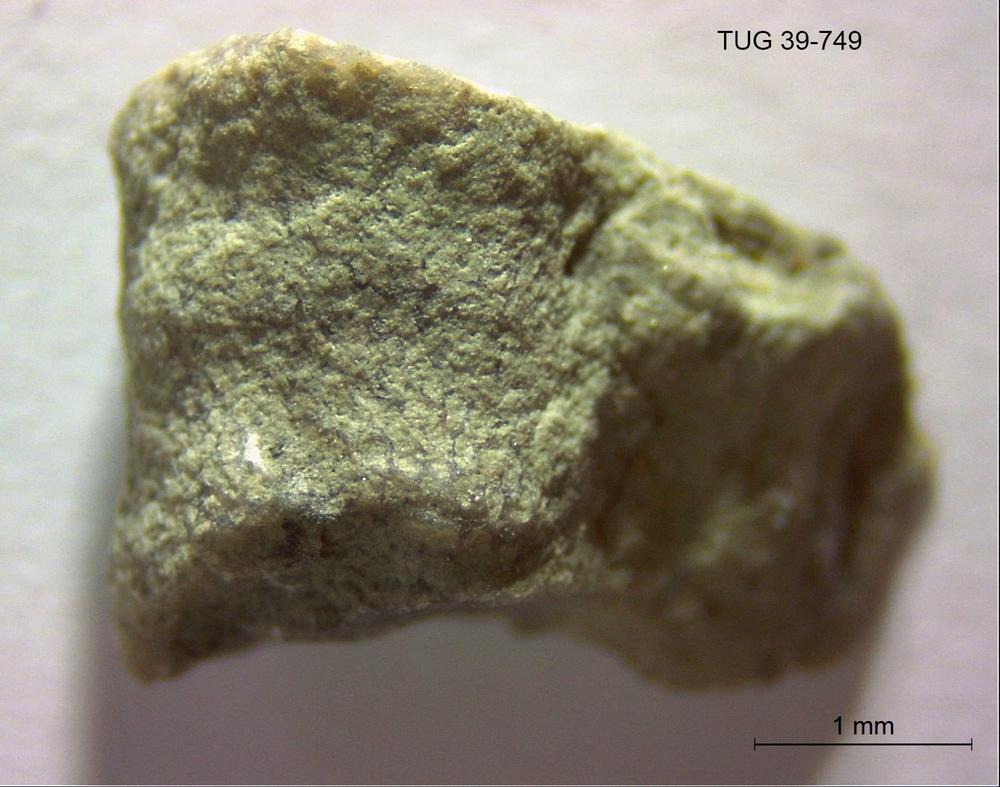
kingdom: Animalia
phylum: Bryozoa
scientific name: Bryozoa
